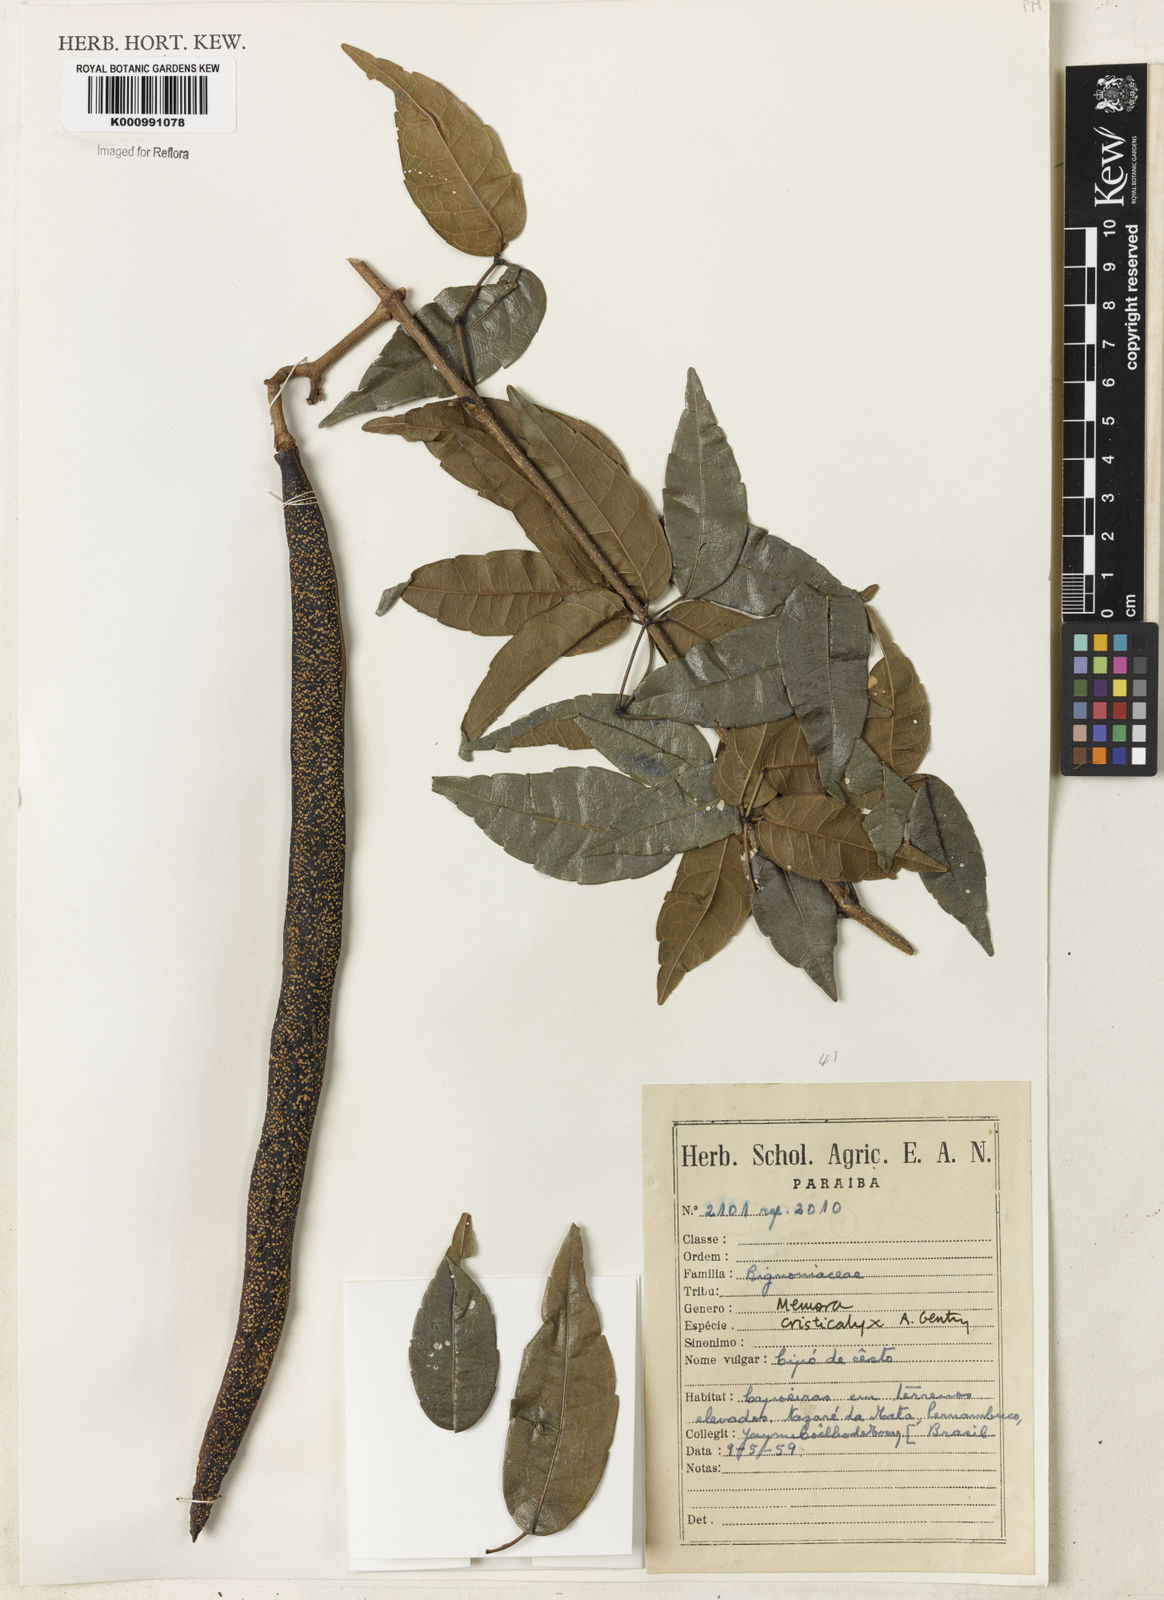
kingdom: Plantae
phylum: Tracheophyta
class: Magnoliopsida
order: Lamiales
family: Bignoniaceae
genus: Adenocalymma
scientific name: Adenocalymma cristicalyx
